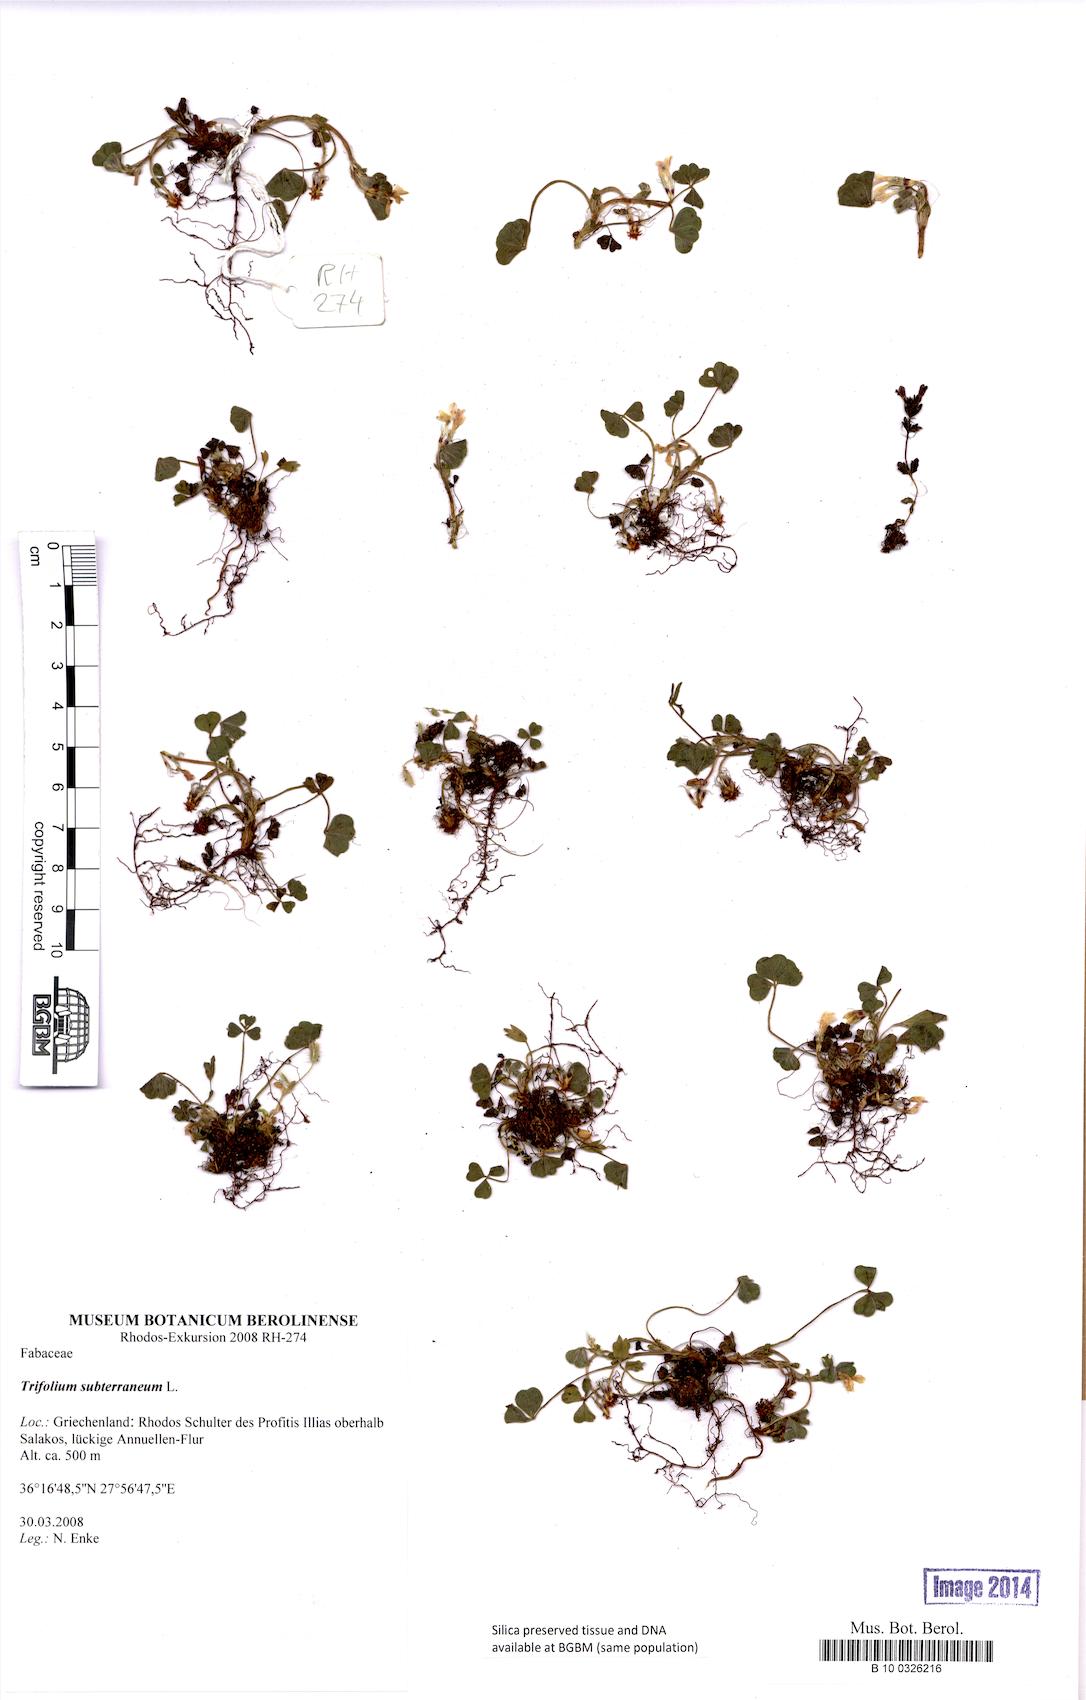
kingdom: Plantae
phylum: Tracheophyta
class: Magnoliopsida
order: Fabales
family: Fabaceae
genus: Trifolium
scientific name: Trifolium subterraneum
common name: Subterranean clover
